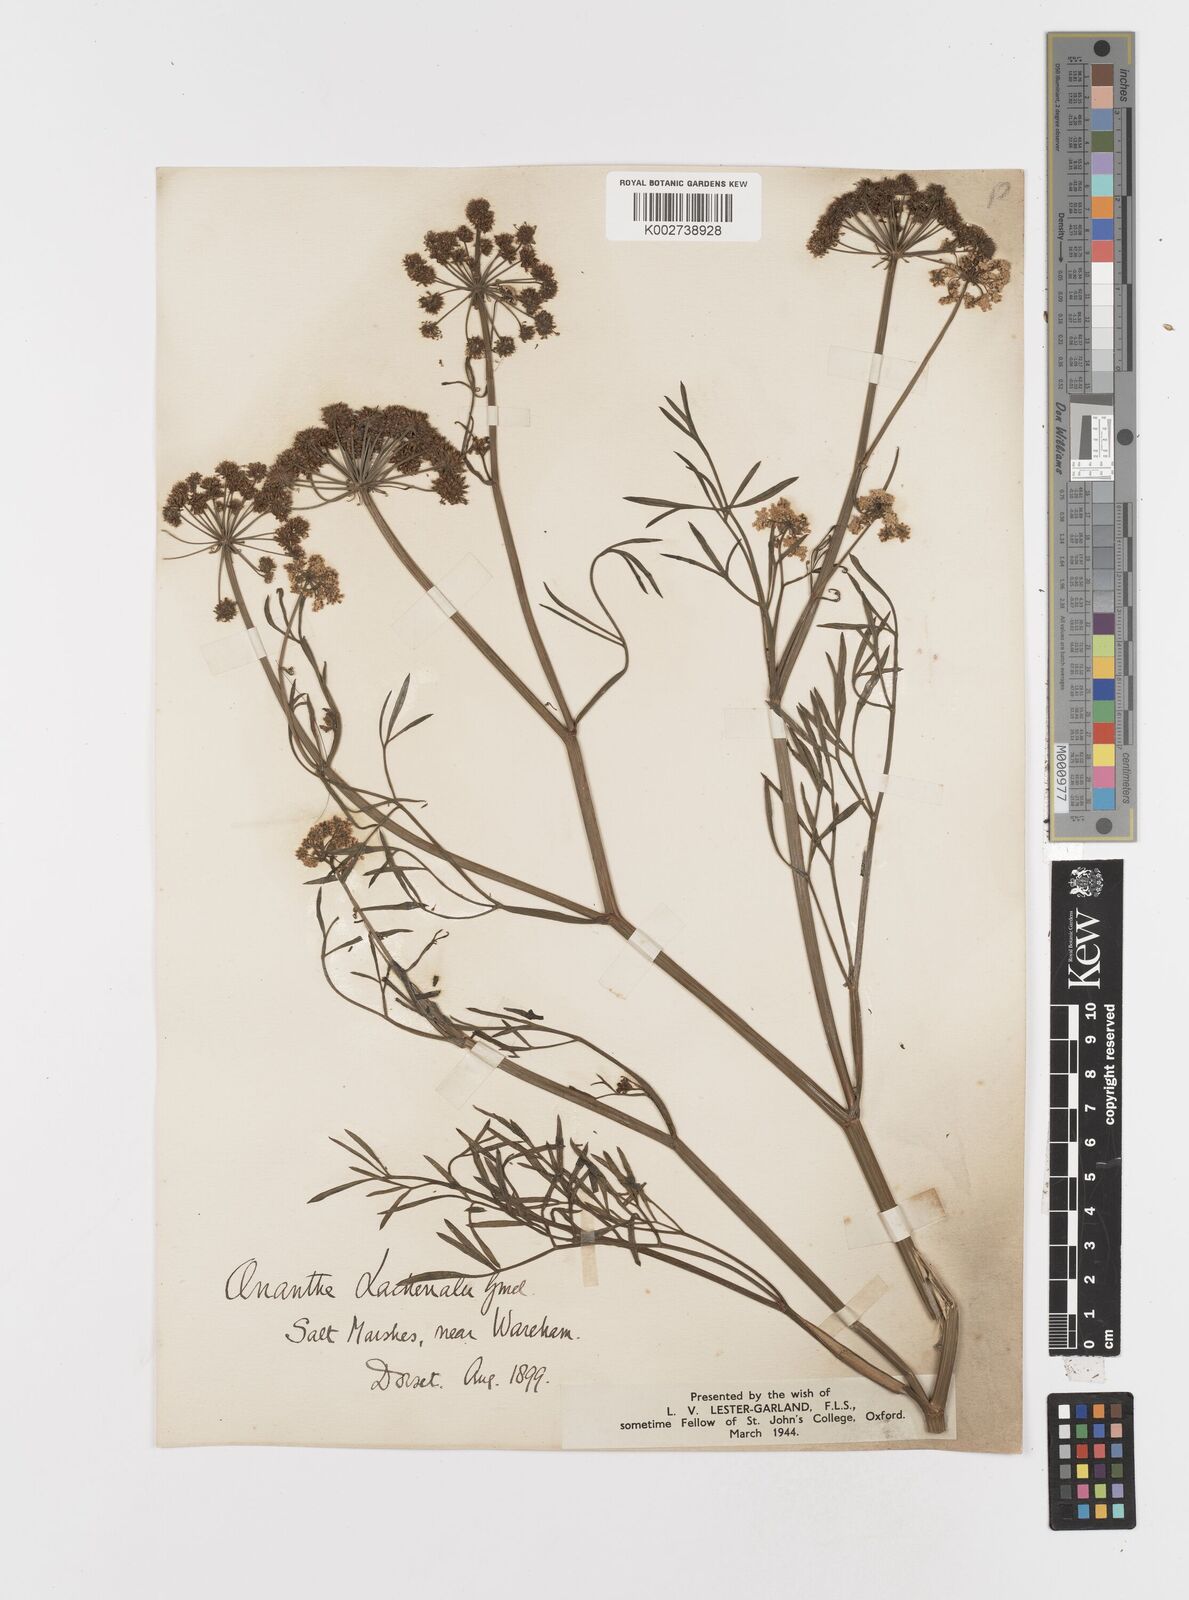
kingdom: Plantae
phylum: Tracheophyta
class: Magnoliopsida
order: Apiales
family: Apiaceae
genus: Oenanthe
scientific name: Oenanthe lachenalii
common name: Parsley water-dropwort
